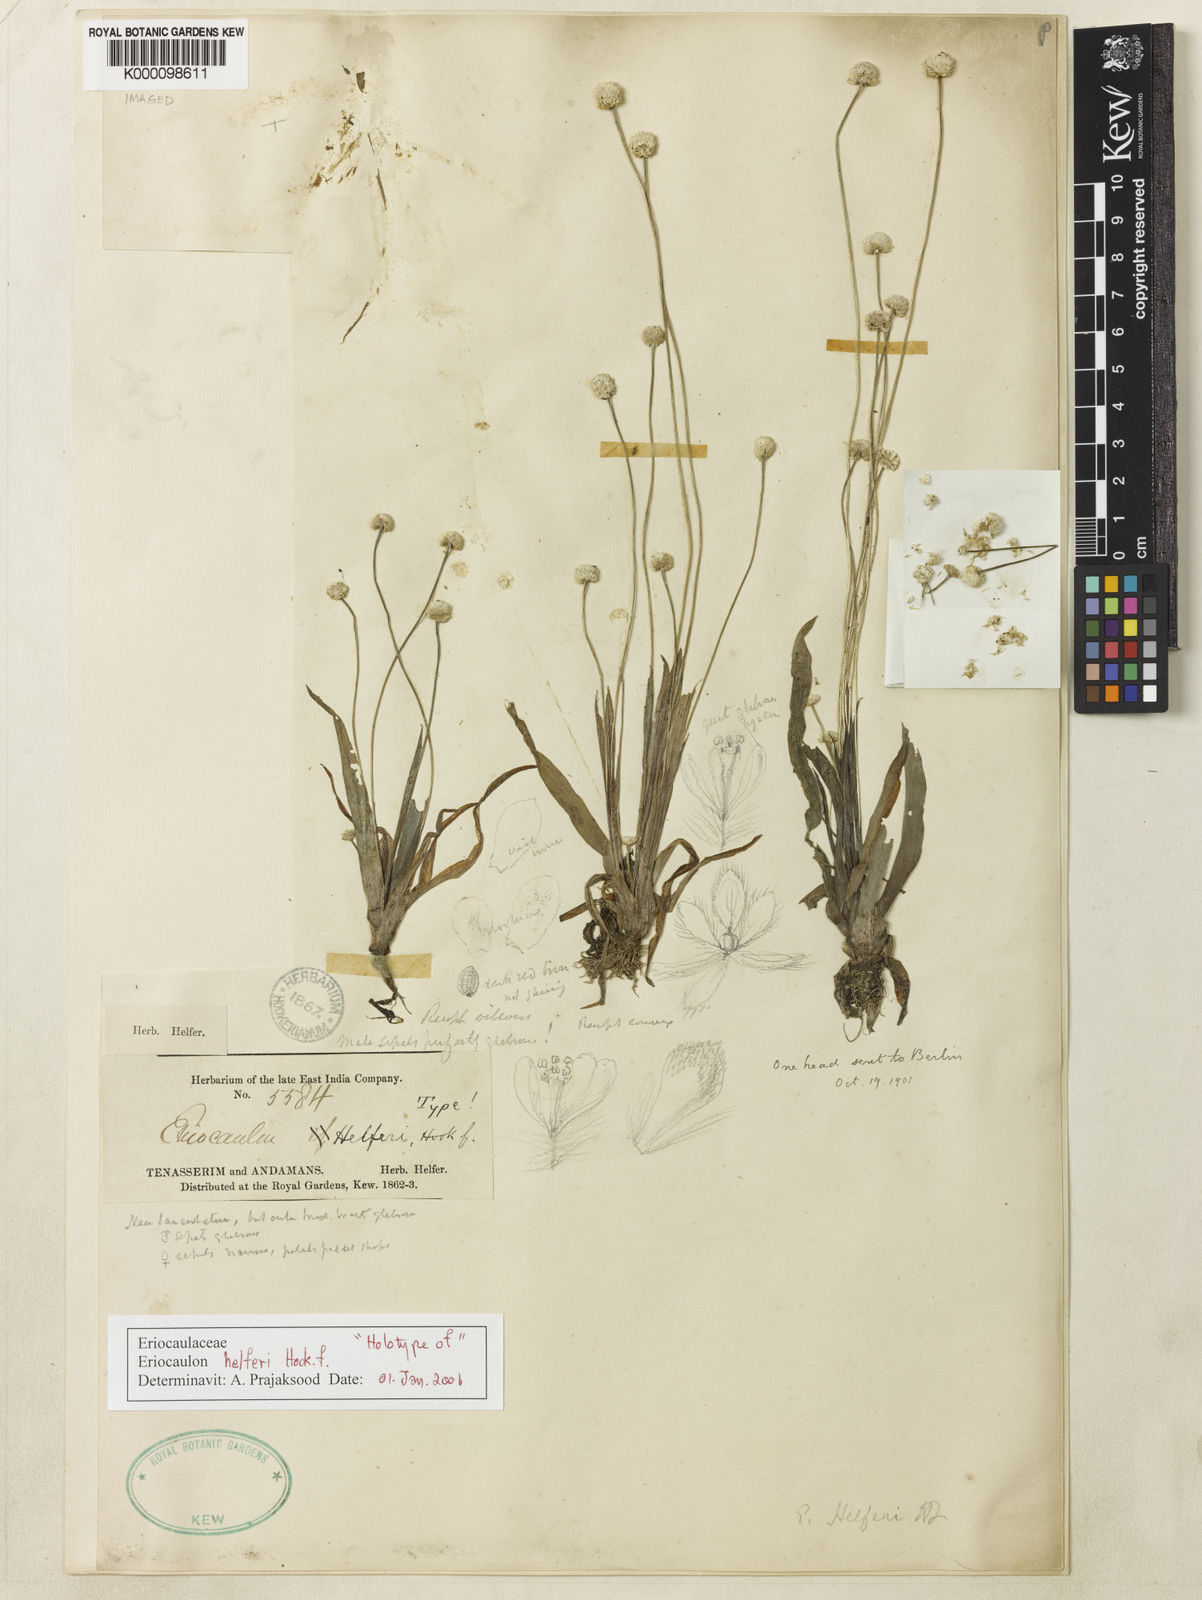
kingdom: Plantae
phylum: Tracheophyta
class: Liliopsida
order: Poales
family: Eriocaulaceae
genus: Eriocaulon
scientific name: Eriocaulon wightianum
